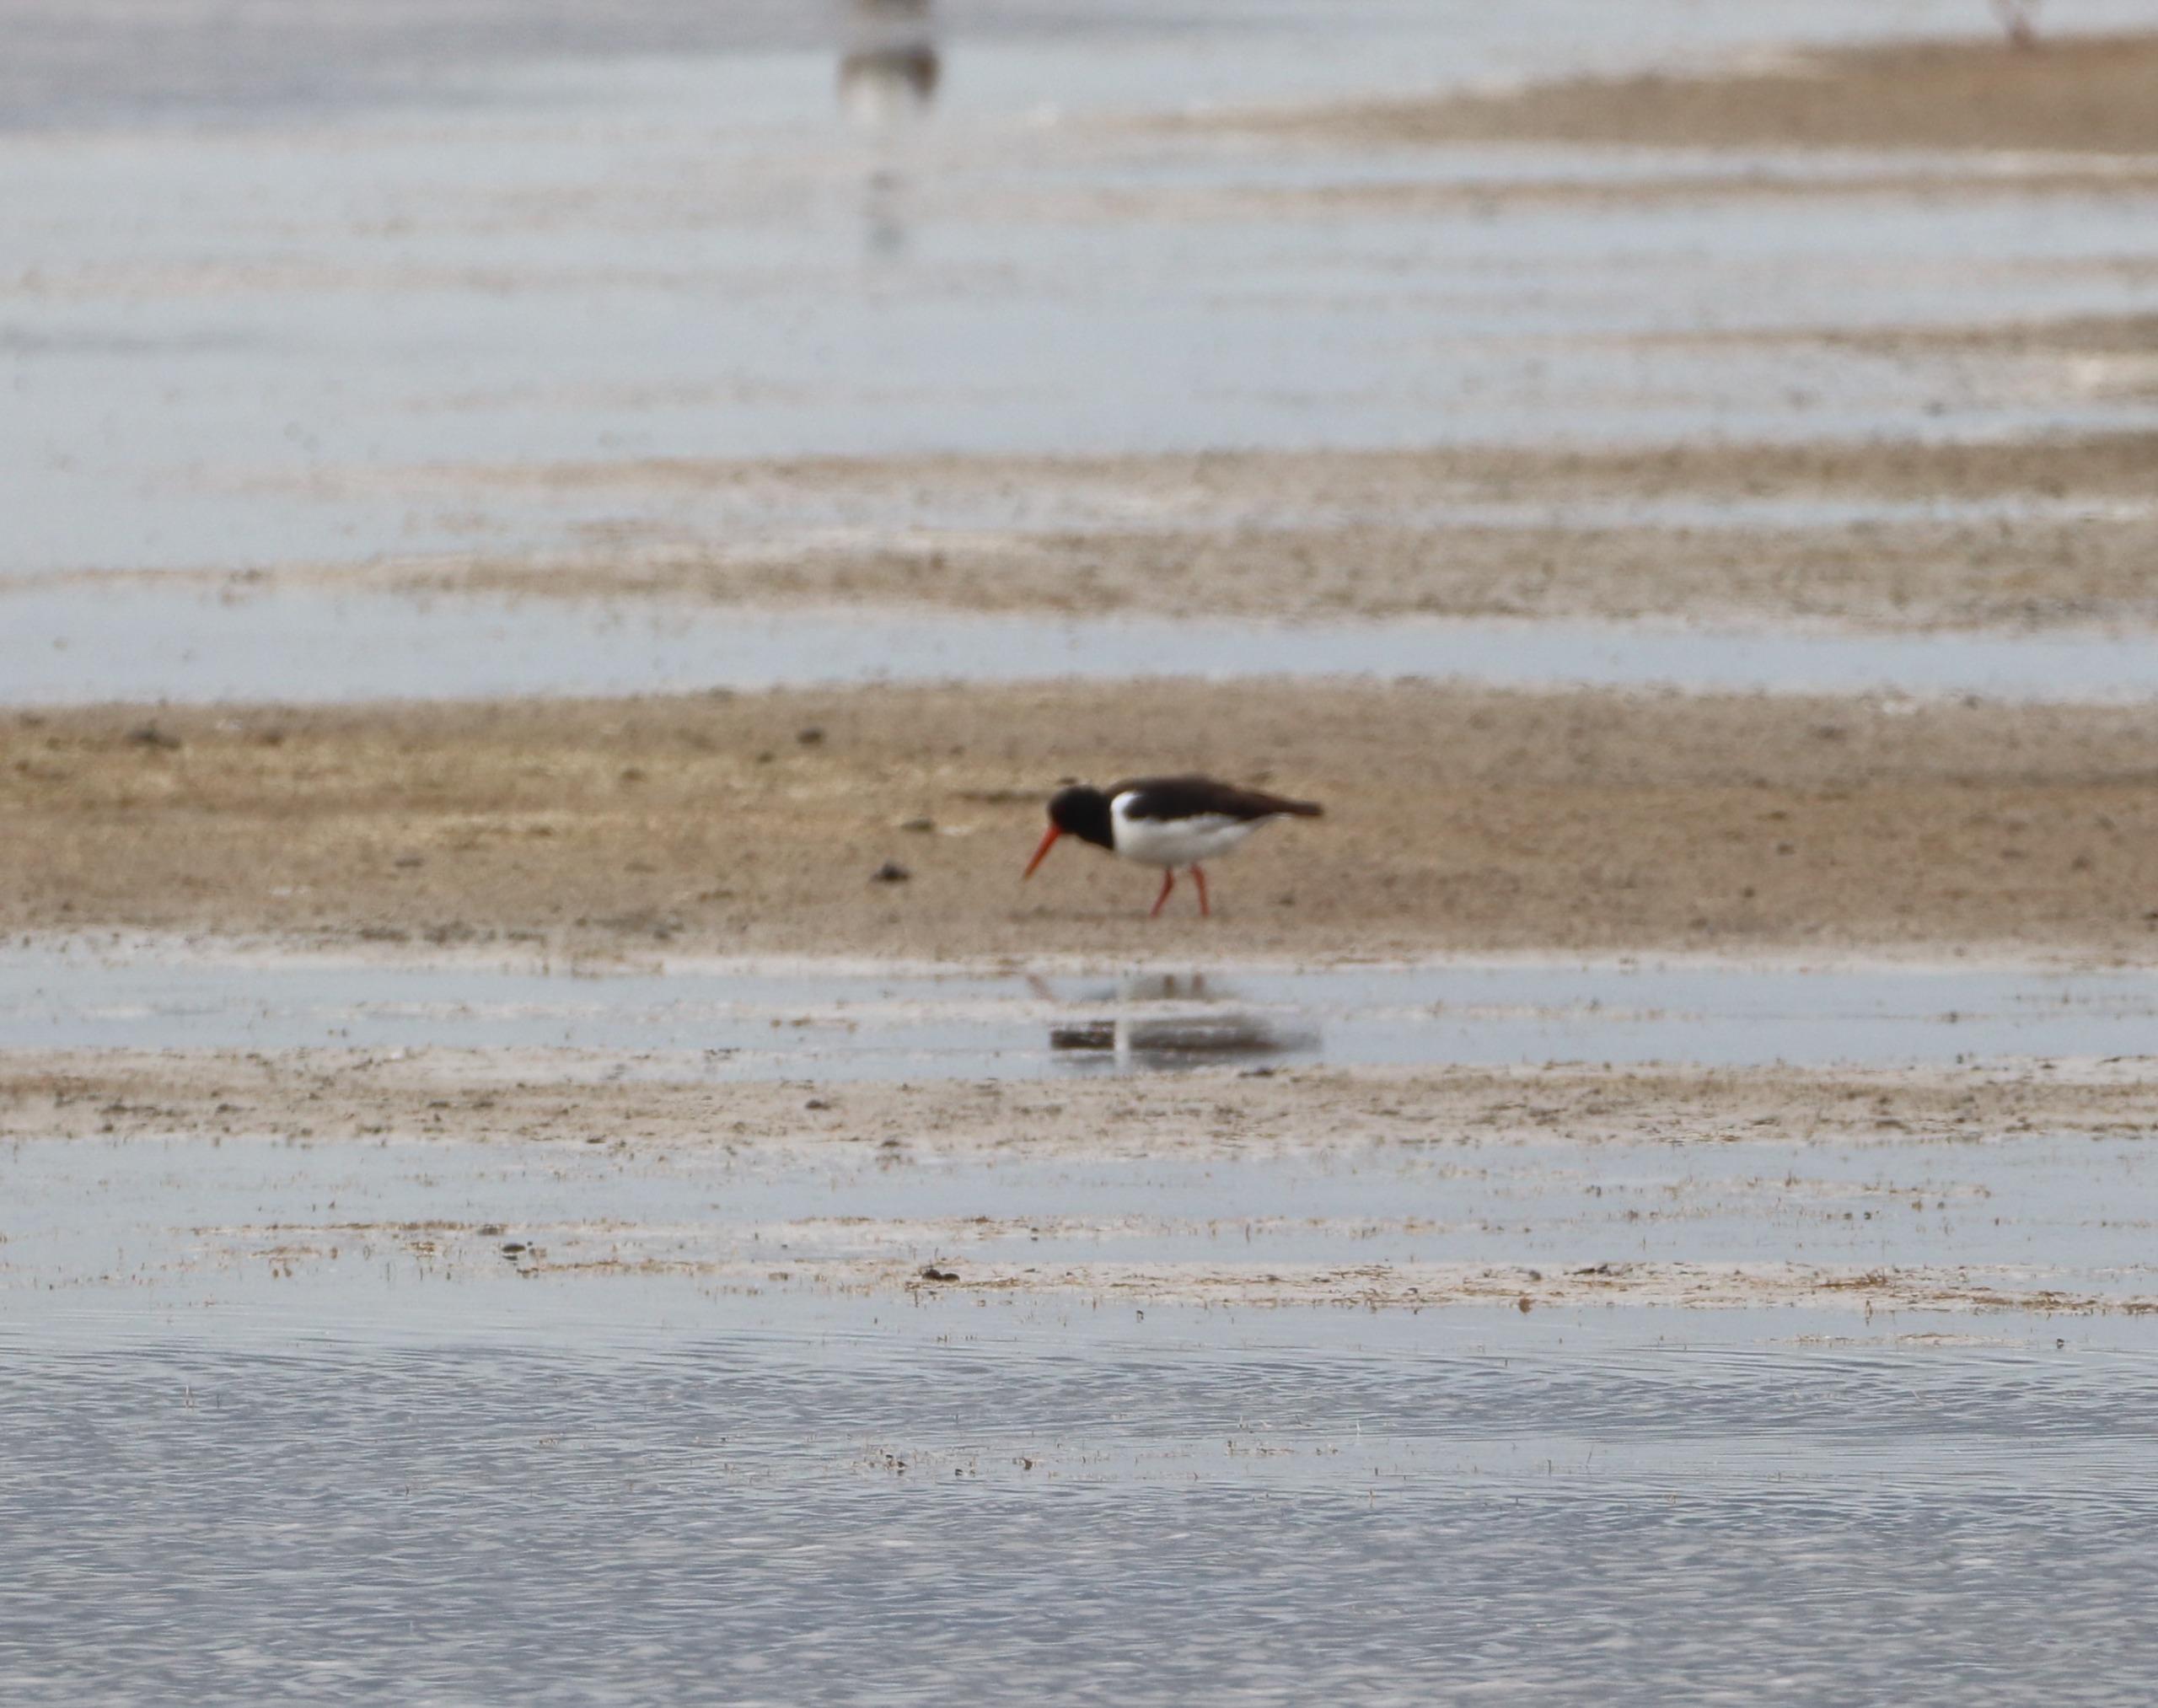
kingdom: Animalia
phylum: Chordata
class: Aves
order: Charadriiformes
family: Haematopodidae
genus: Haematopus
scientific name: Haematopus ostralegus
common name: Strandskade
